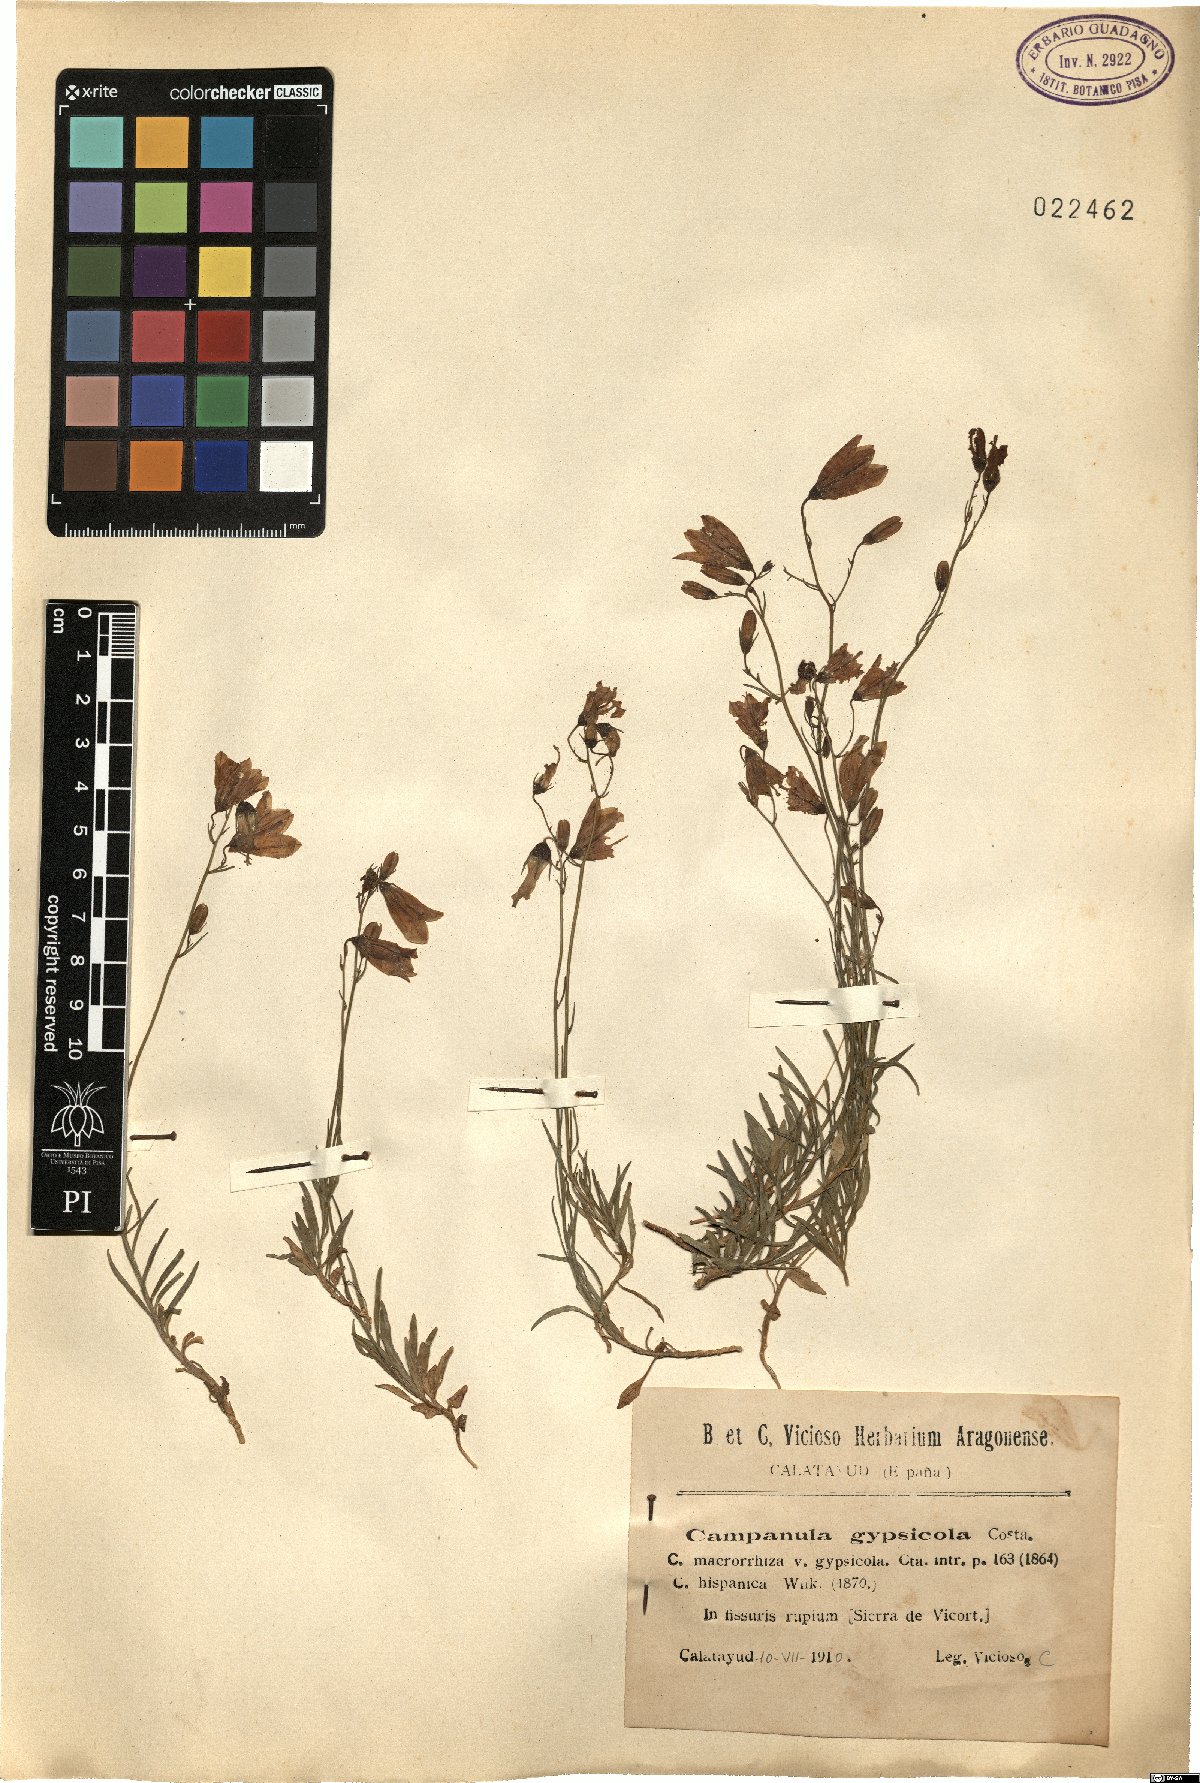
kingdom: Plantae
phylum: Tracheophyta
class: Magnoliopsida
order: Asterales
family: Campanulaceae
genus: Campanula
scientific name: Campanula macrorhiza
